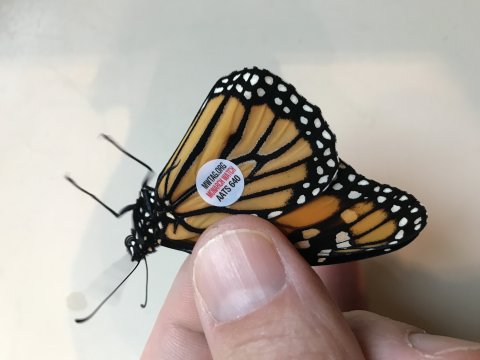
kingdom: Animalia
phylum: Arthropoda
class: Insecta
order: Lepidoptera
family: Nymphalidae
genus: Danaus
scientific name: Danaus plexippus
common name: Monarch
